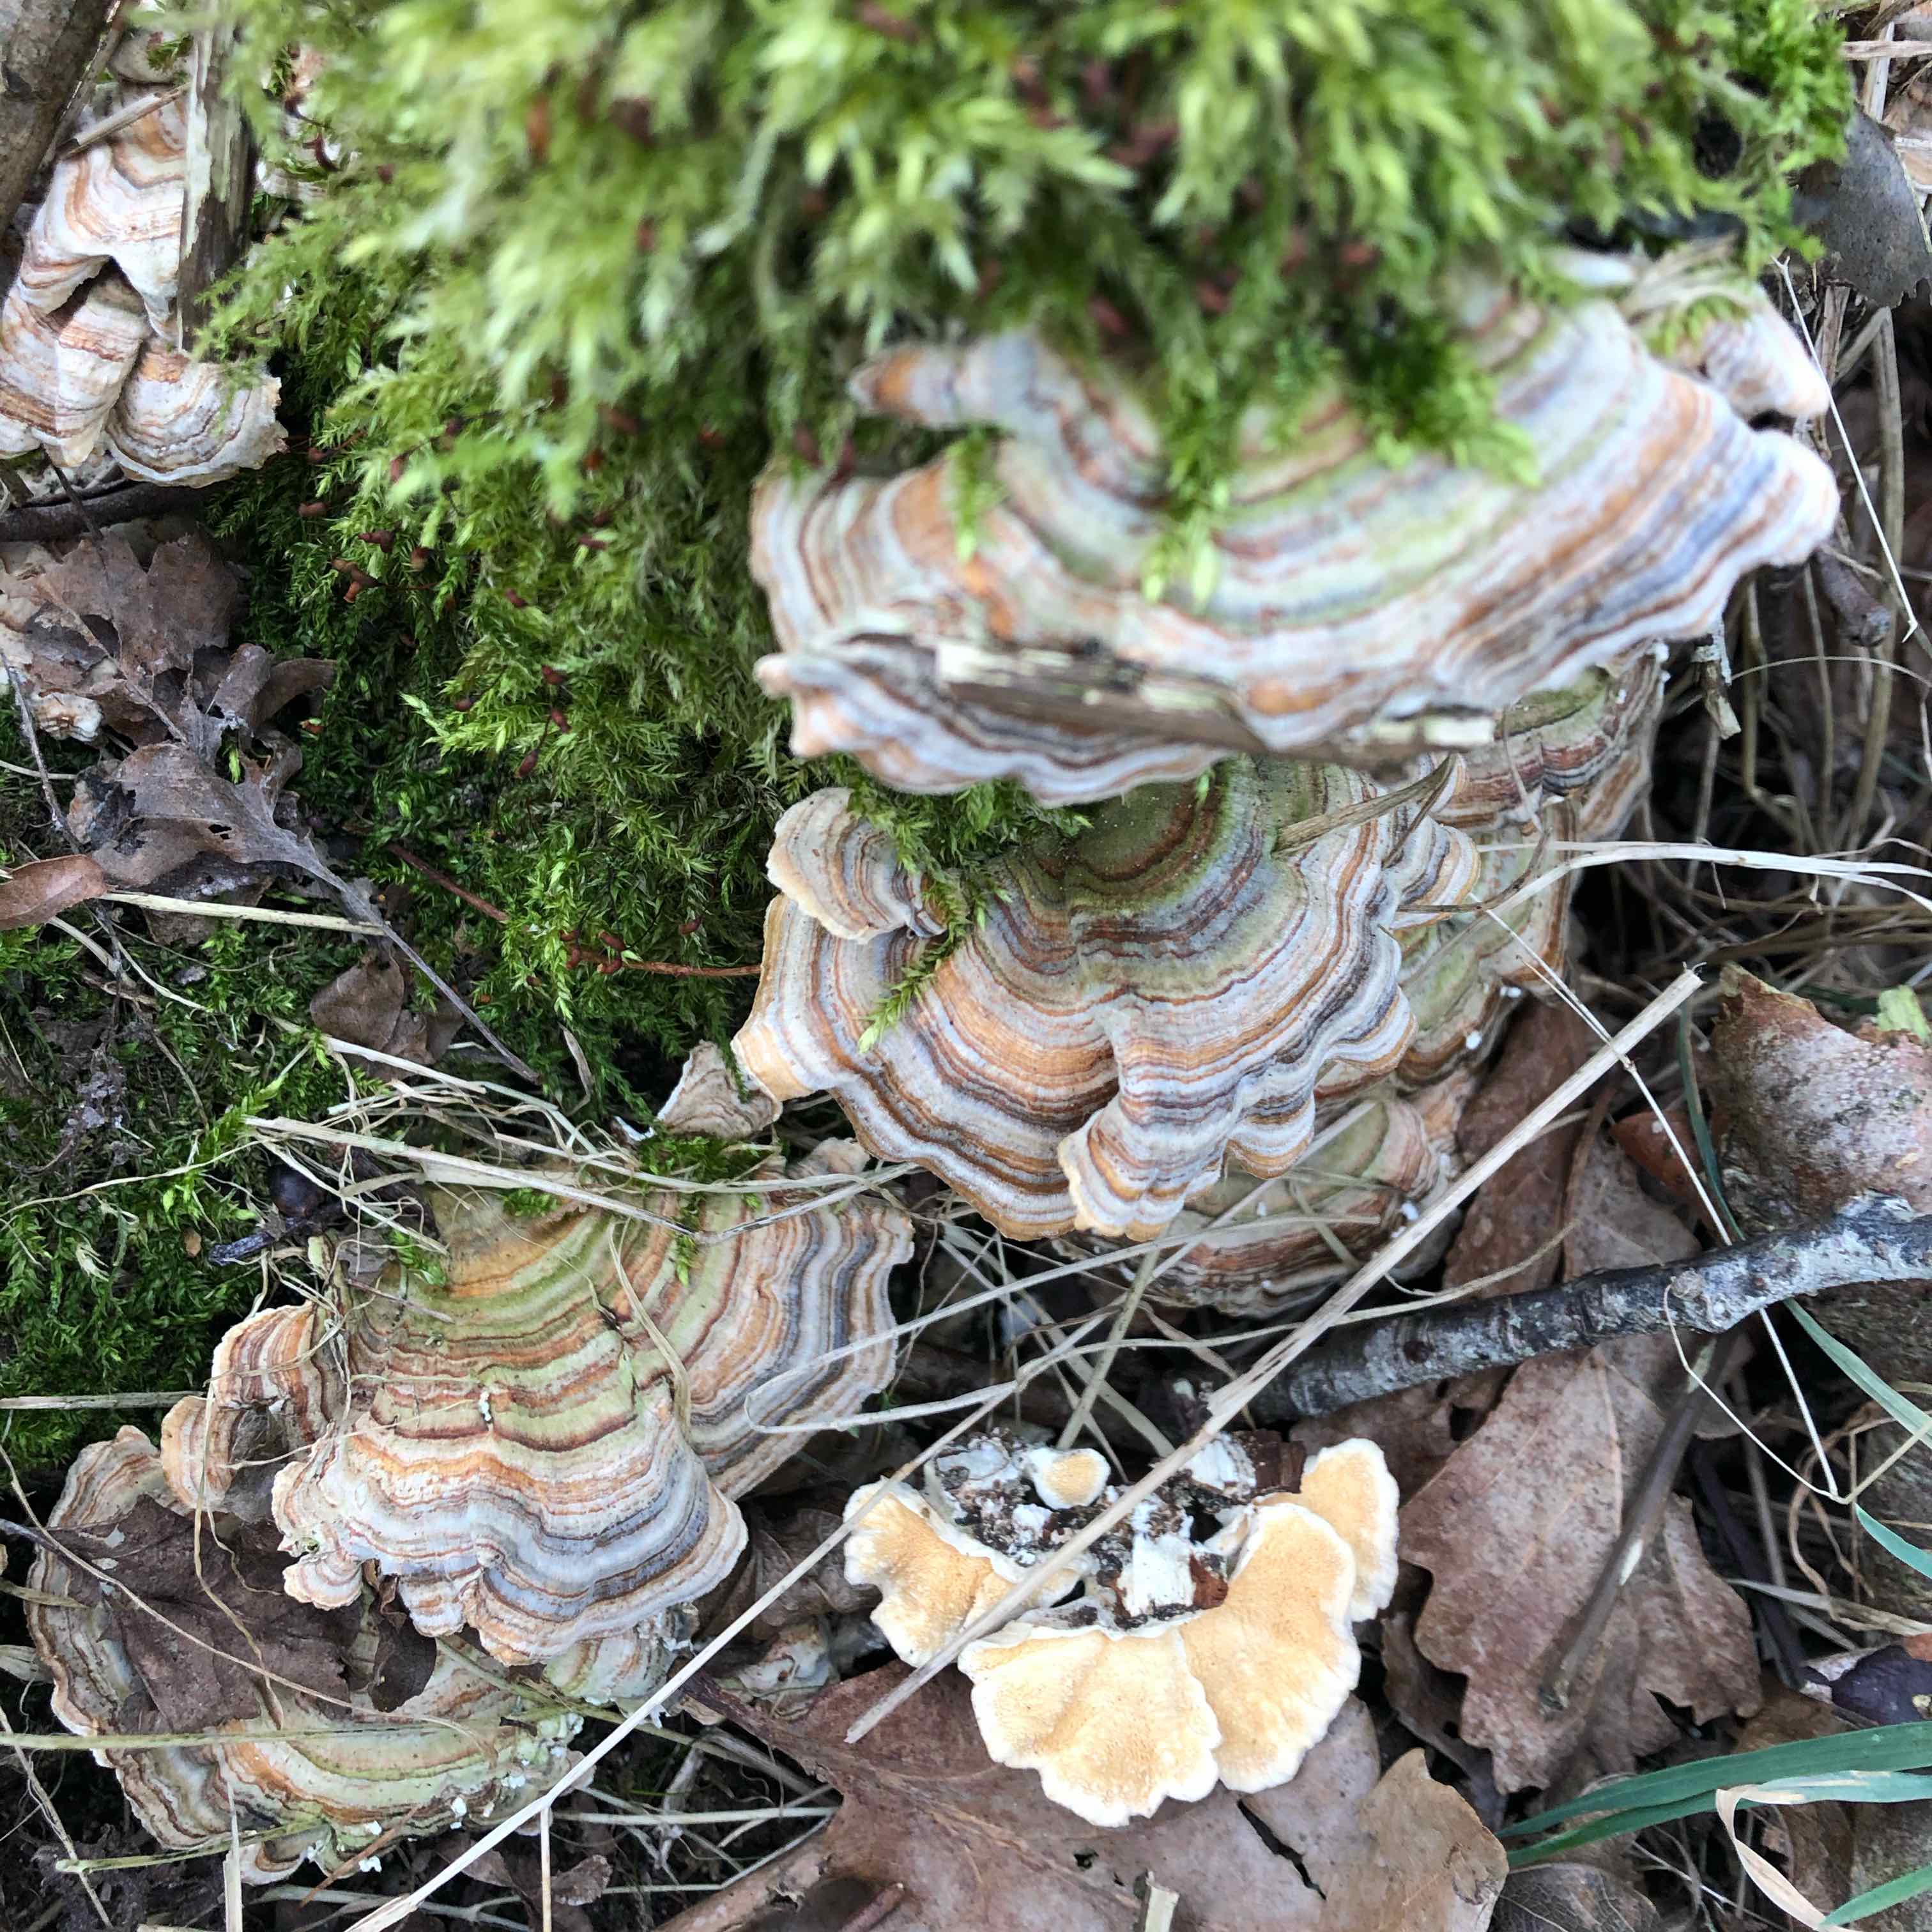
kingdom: Fungi
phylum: Basidiomycota
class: Agaricomycetes
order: Polyporales
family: Polyporaceae
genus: Trametes
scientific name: Trametes versicolor
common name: broget læderporesvamp
